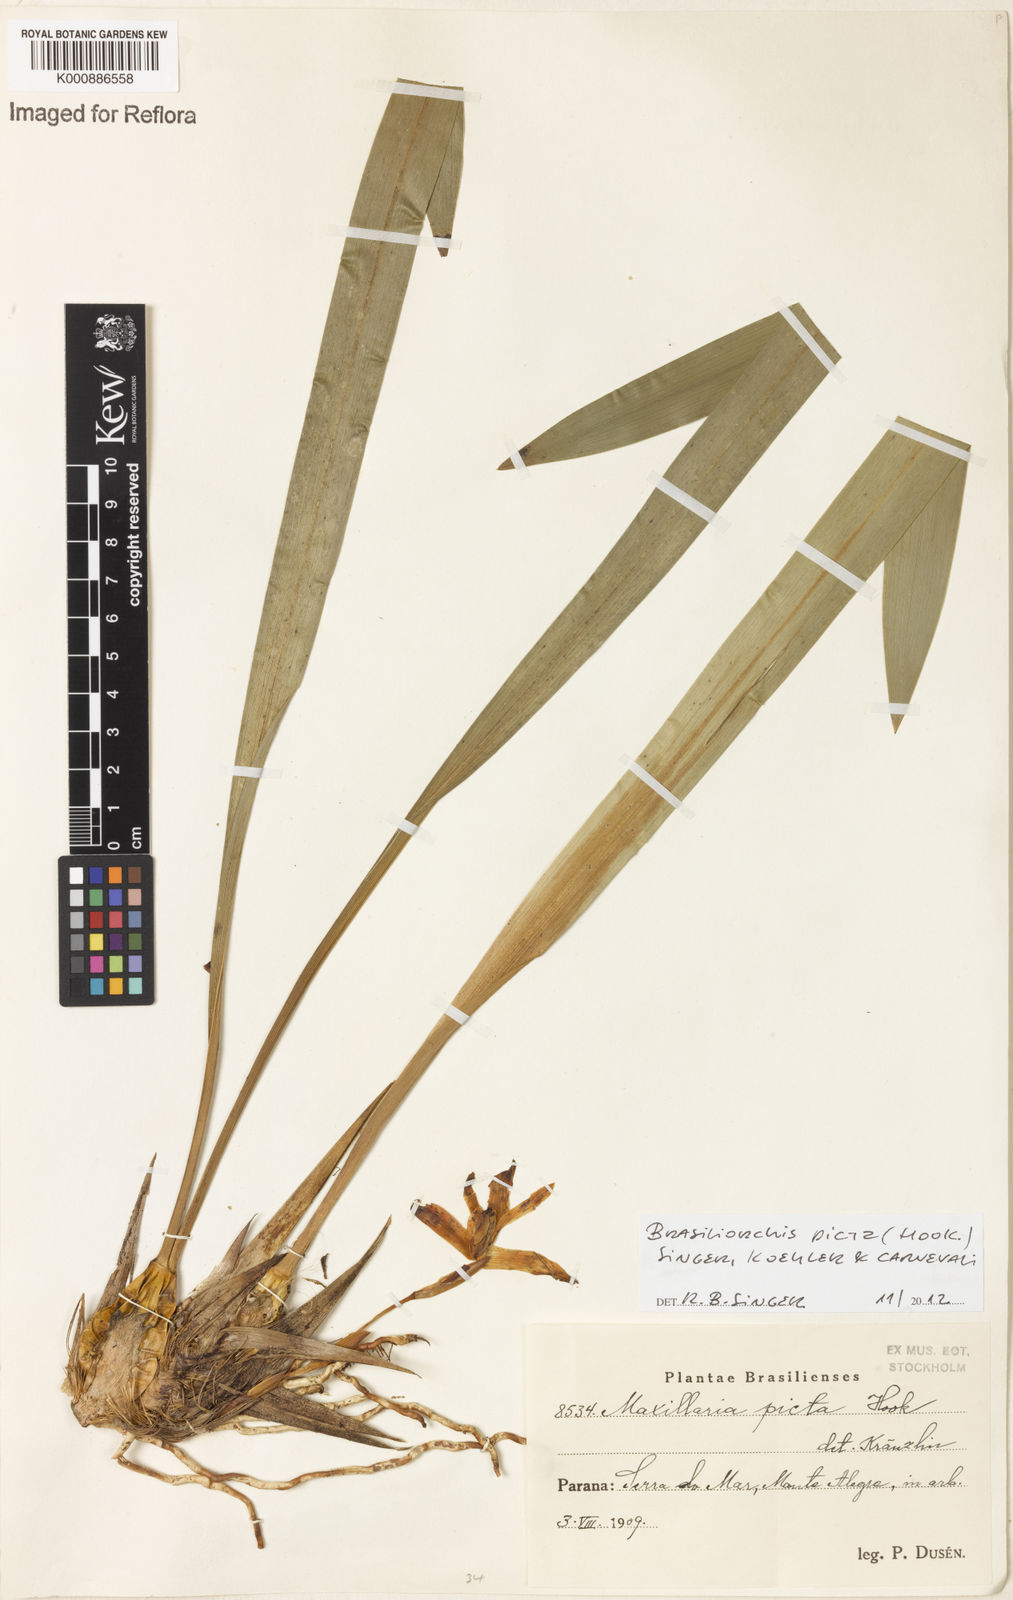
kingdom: Plantae
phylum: Tracheophyta
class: Liliopsida
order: Asparagales
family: Orchidaceae
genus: Maxillaria
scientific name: Maxillaria
